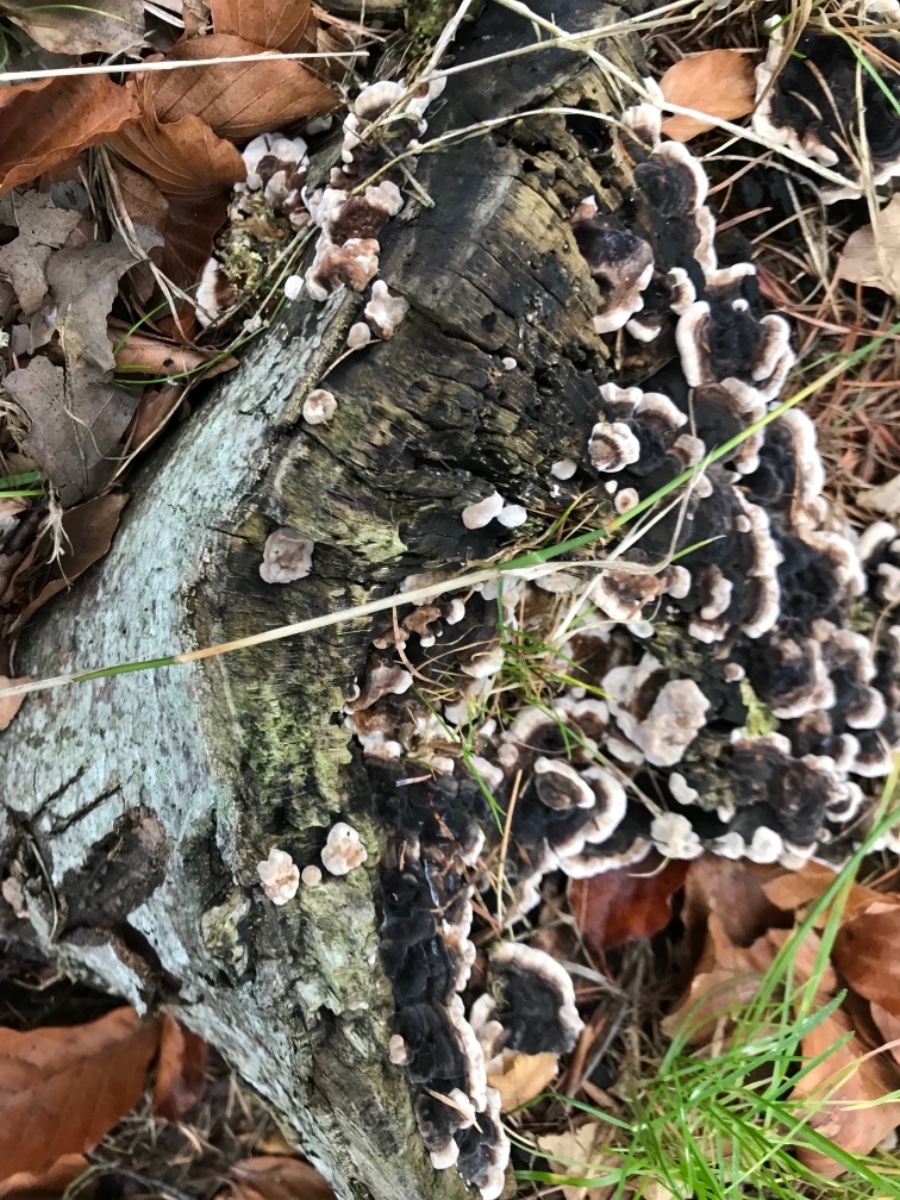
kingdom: Fungi
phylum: Basidiomycota
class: Agaricomycetes
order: Polyporales
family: Polyporaceae
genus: Trametes
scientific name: Trametes versicolor
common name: broget læderporesvamp
